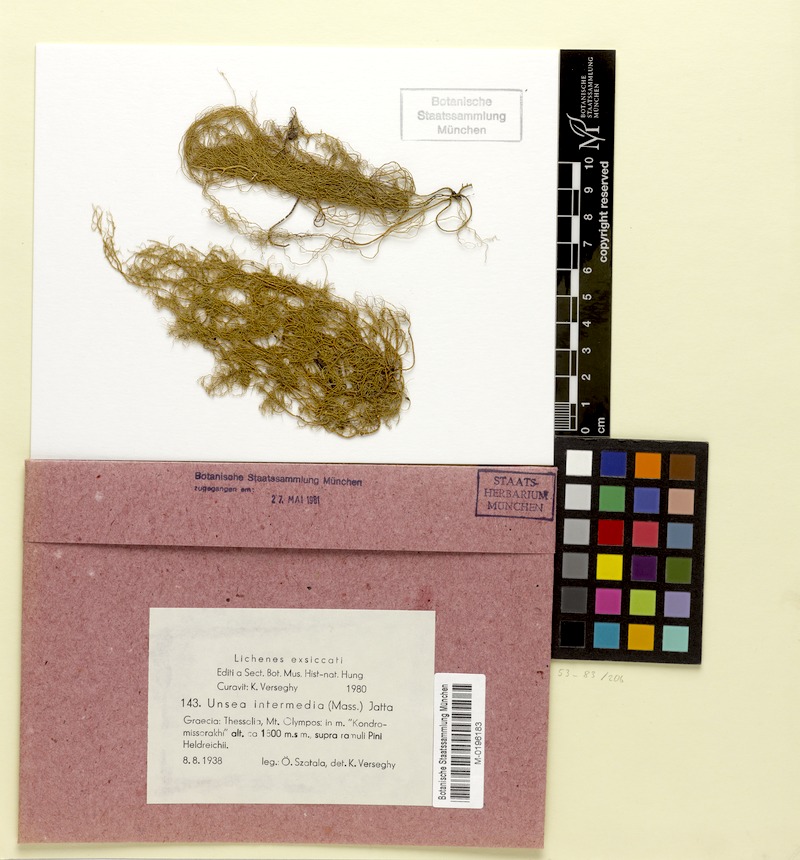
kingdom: Fungi
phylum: Ascomycota
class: Lecanoromycetes
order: Lecanorales
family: Parmeliaceae
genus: Usnea
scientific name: Usnea intermedia
